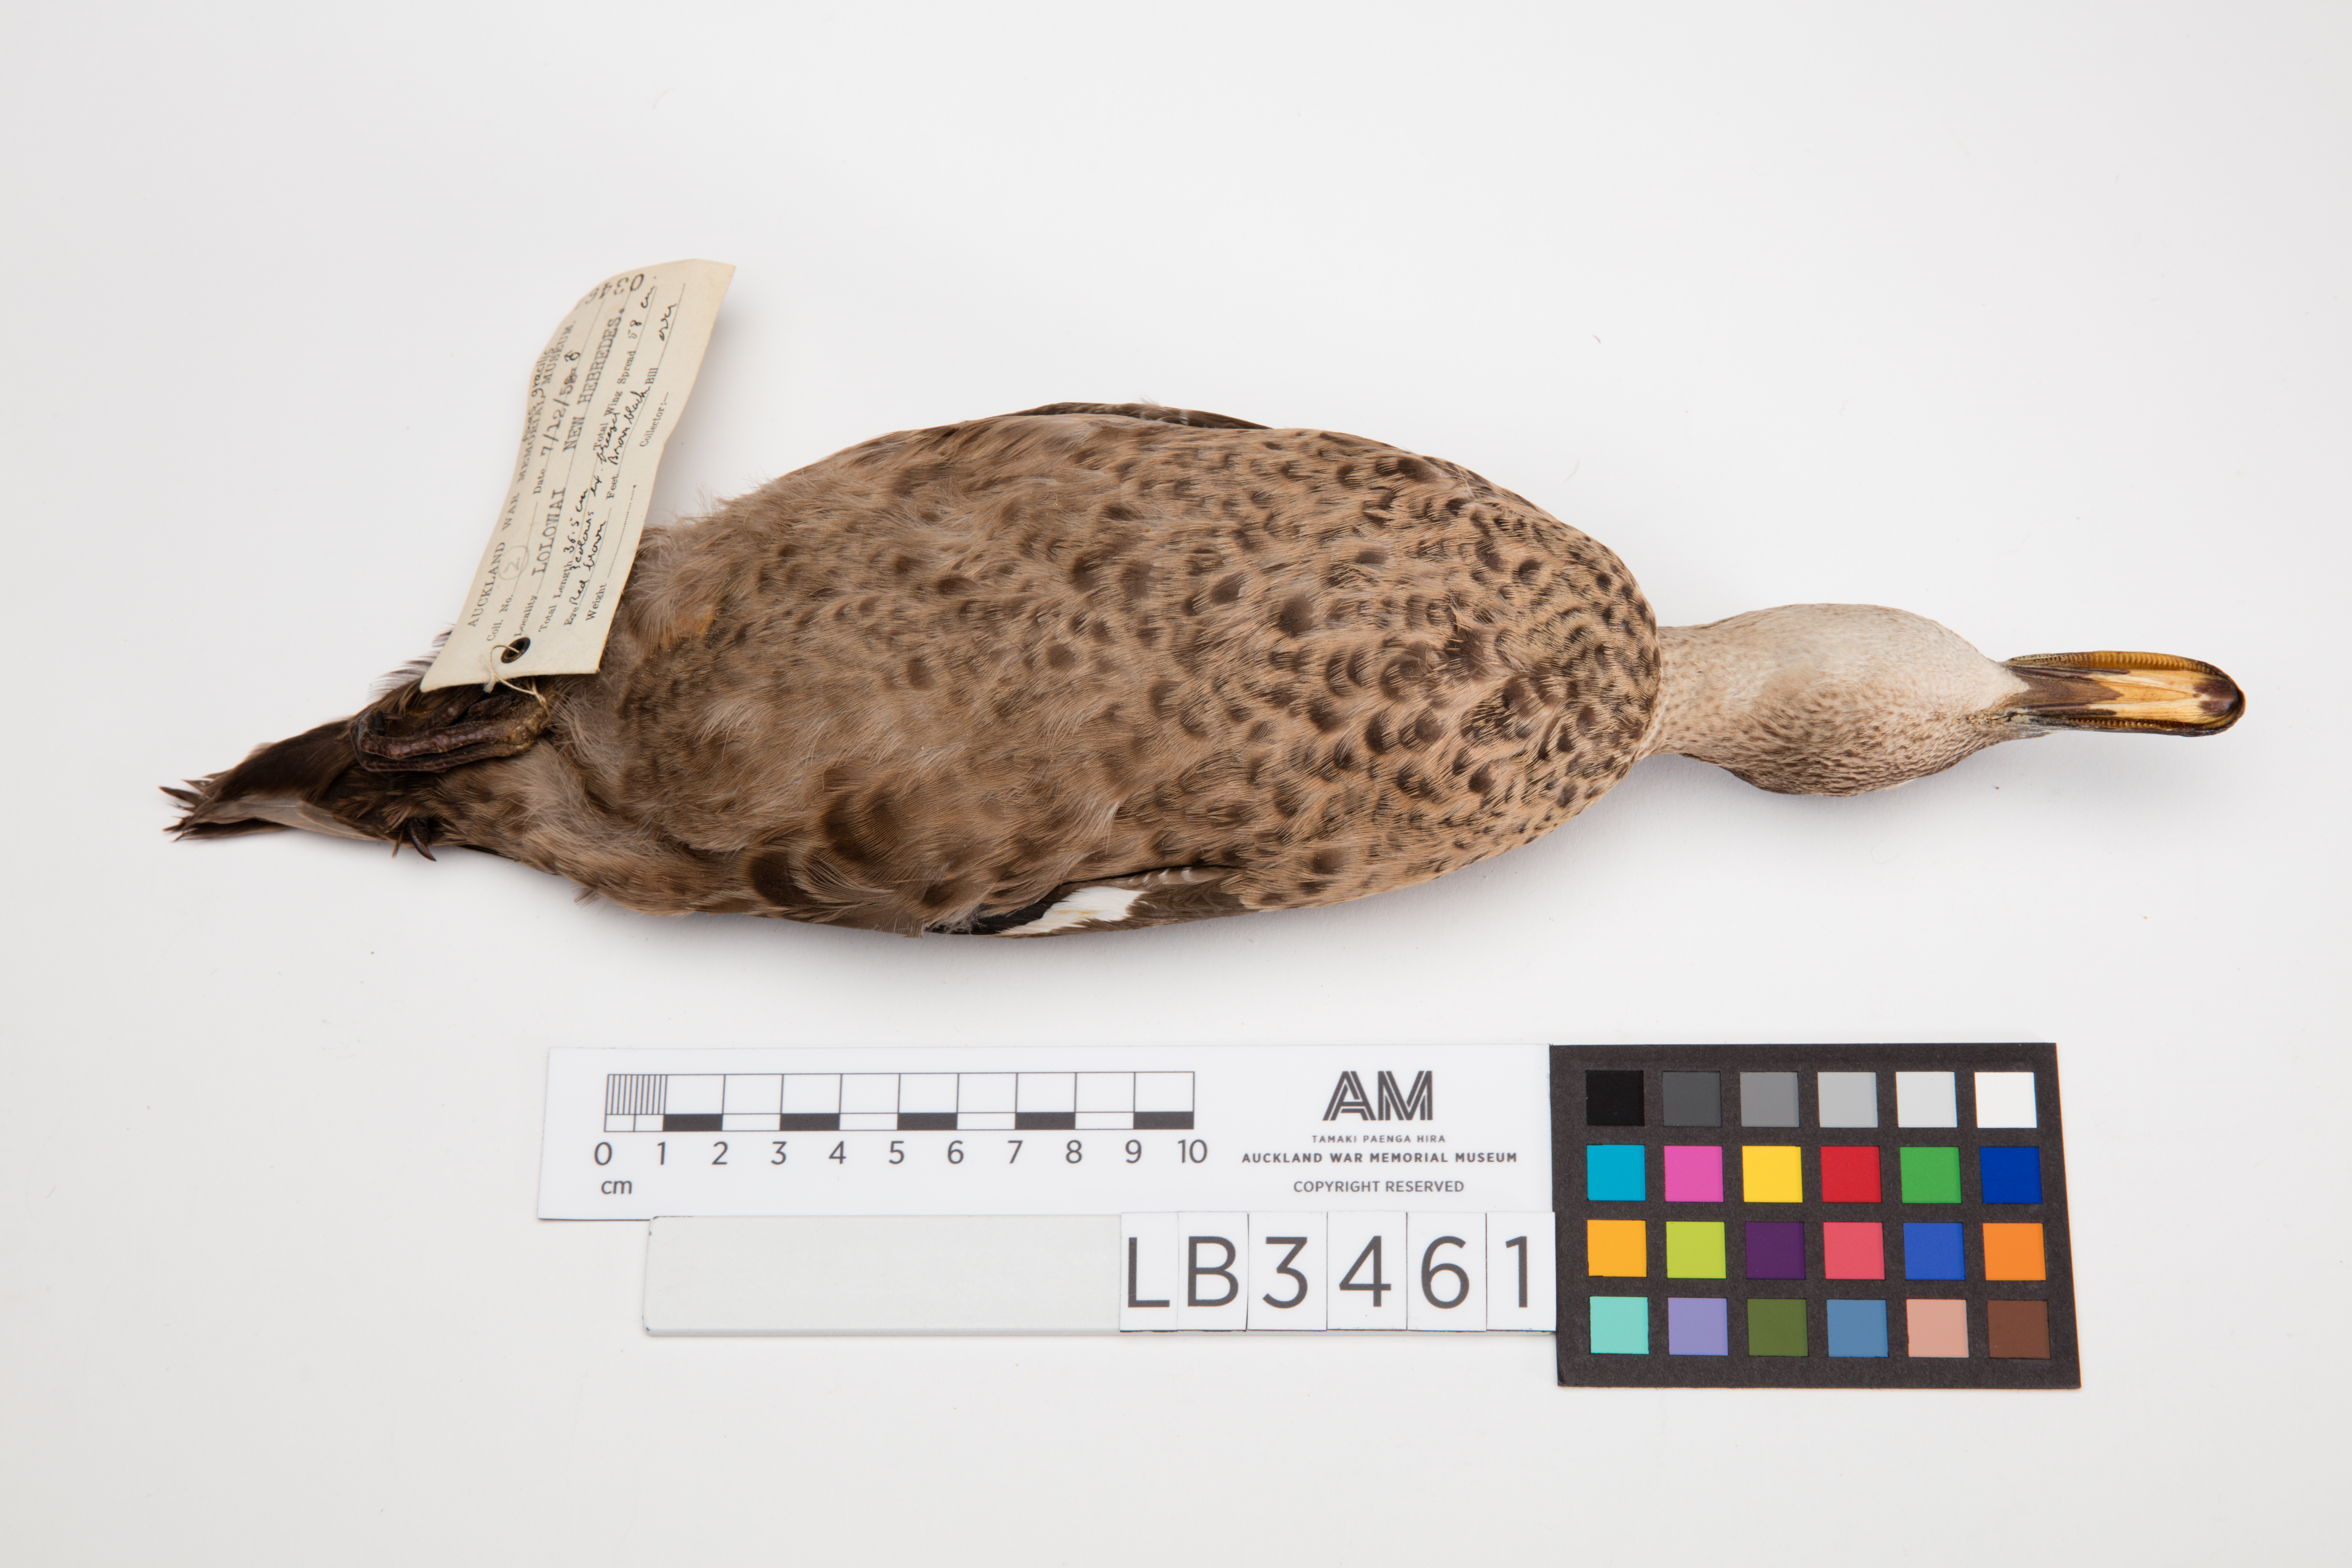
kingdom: Animalia
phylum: Chordata
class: Aves
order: Anseriformes
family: Anatidae
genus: Anas
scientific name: Anas gracilis
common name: Grey teal
